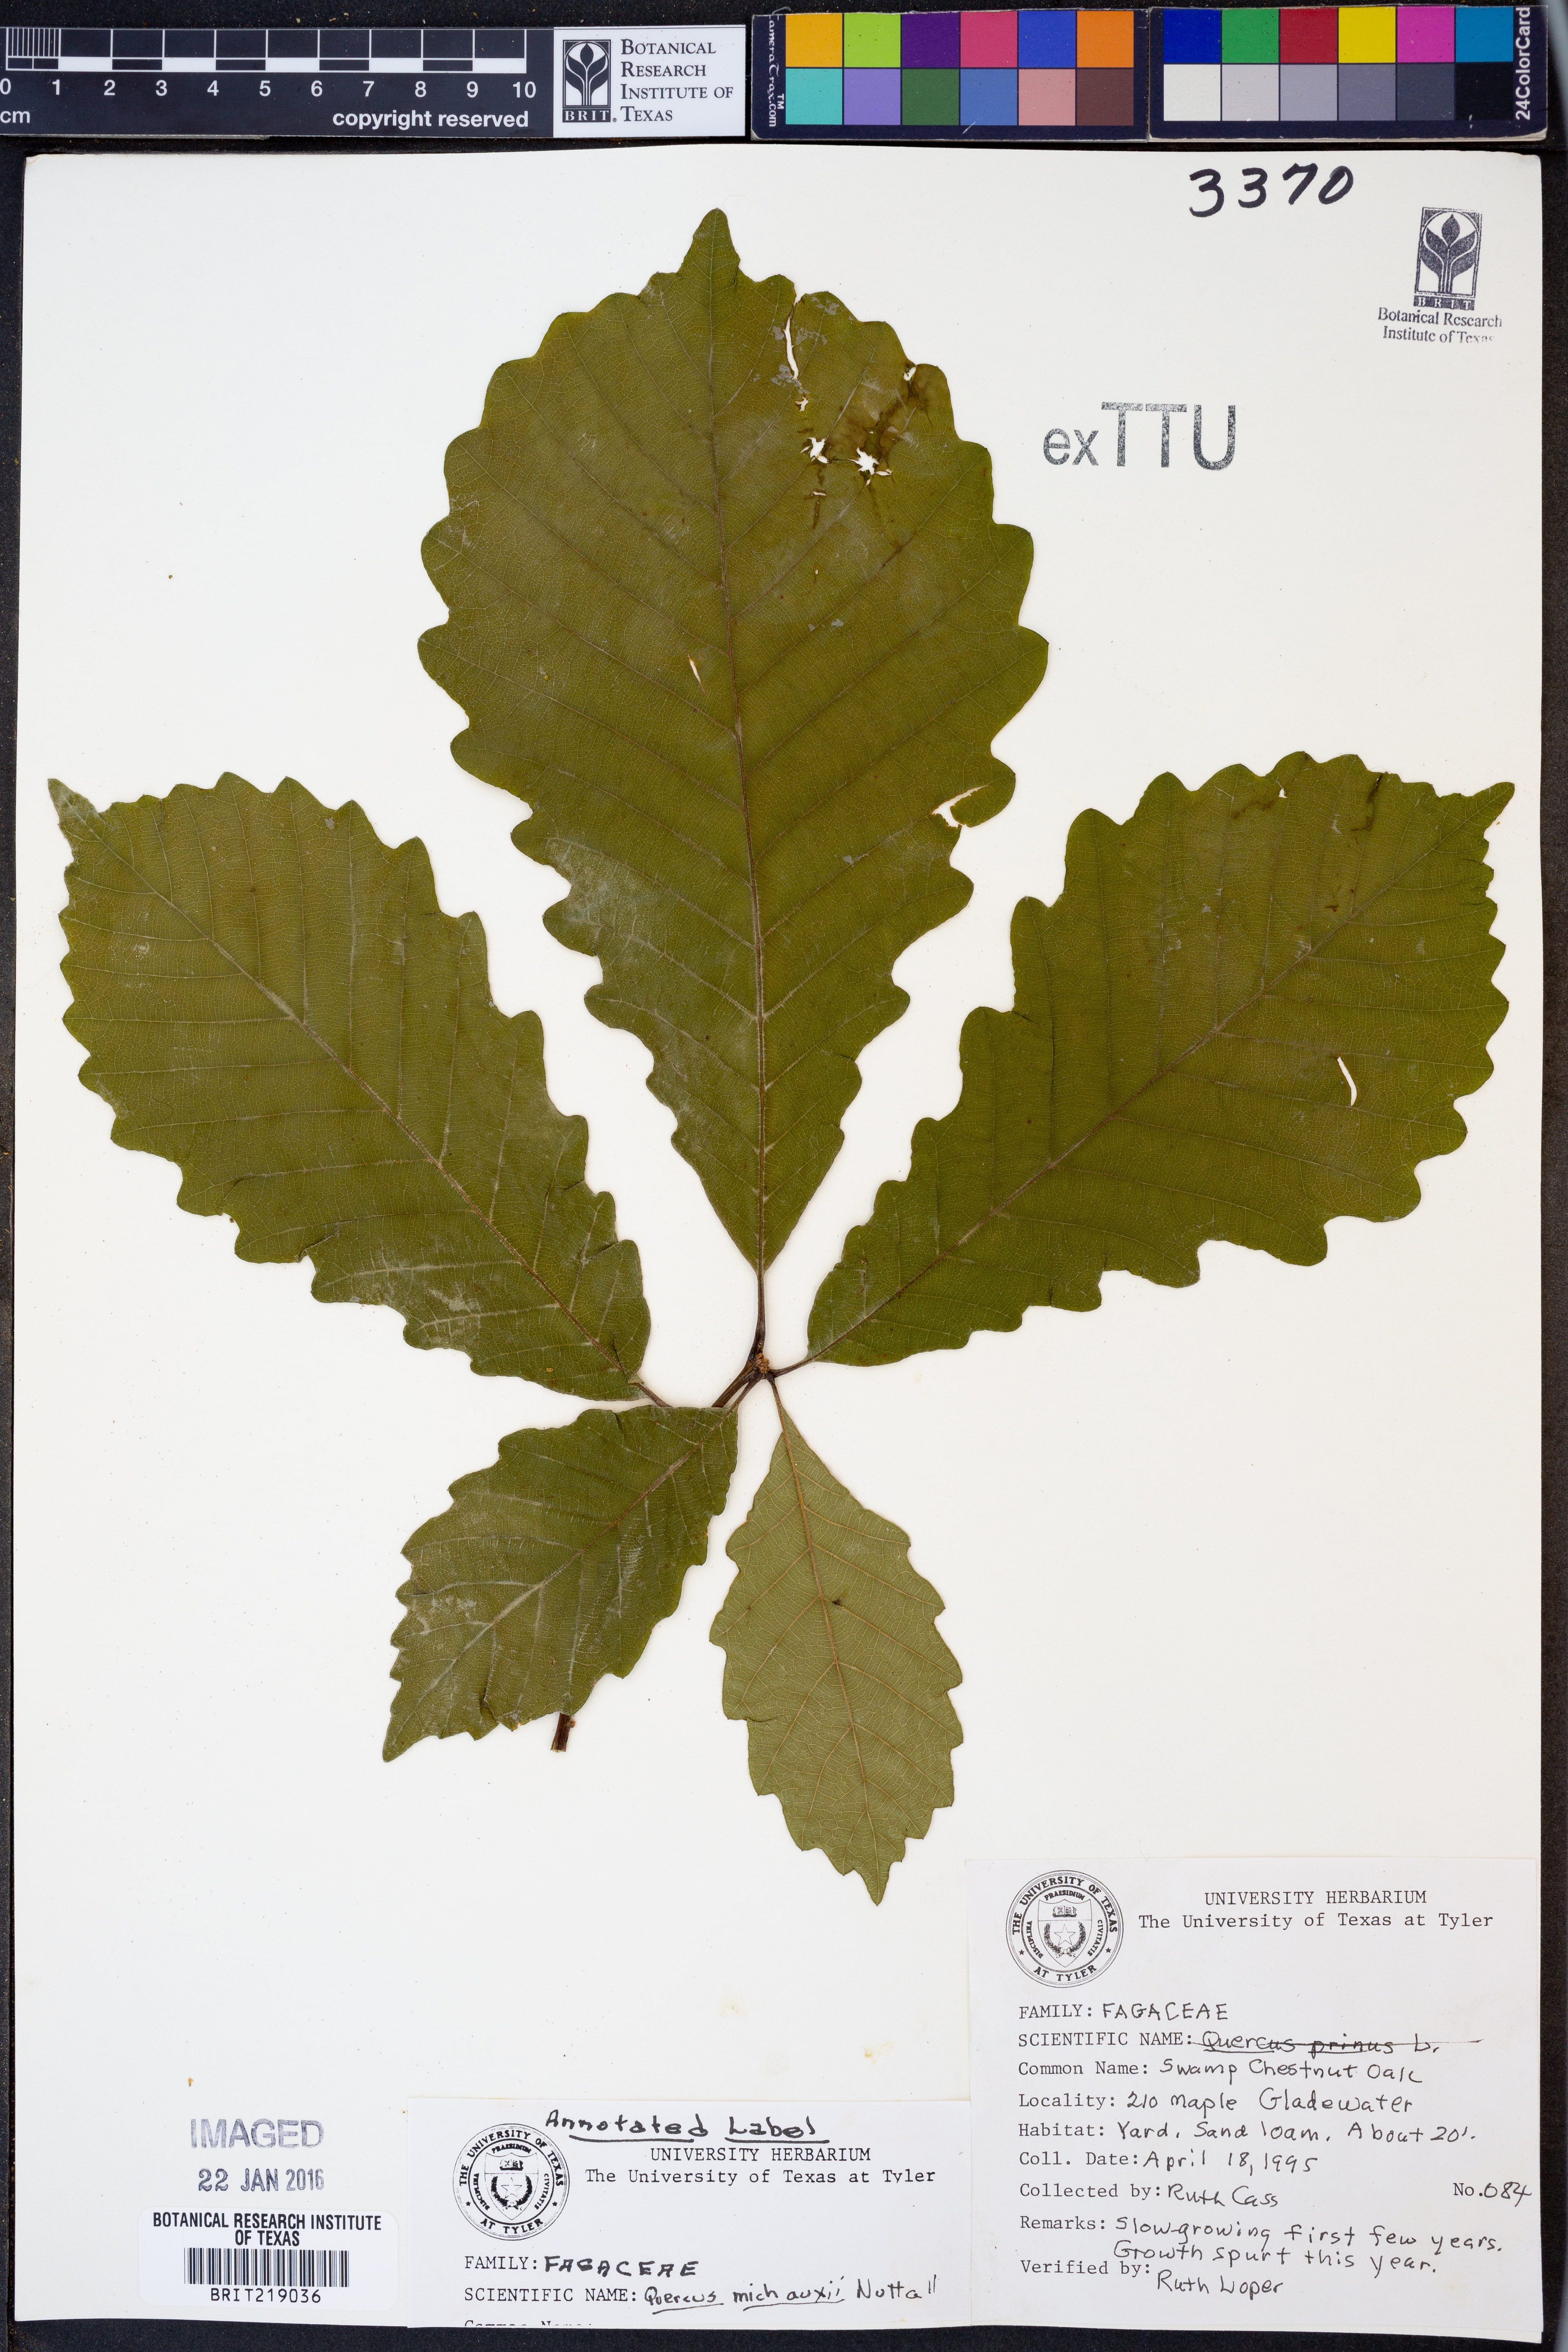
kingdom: Plantae
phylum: Tracheophyta
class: Magnoliopsida
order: Fagales
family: Fagaceae
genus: Quercus
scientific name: Quercus michauxii
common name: Swamp chestnut oak
